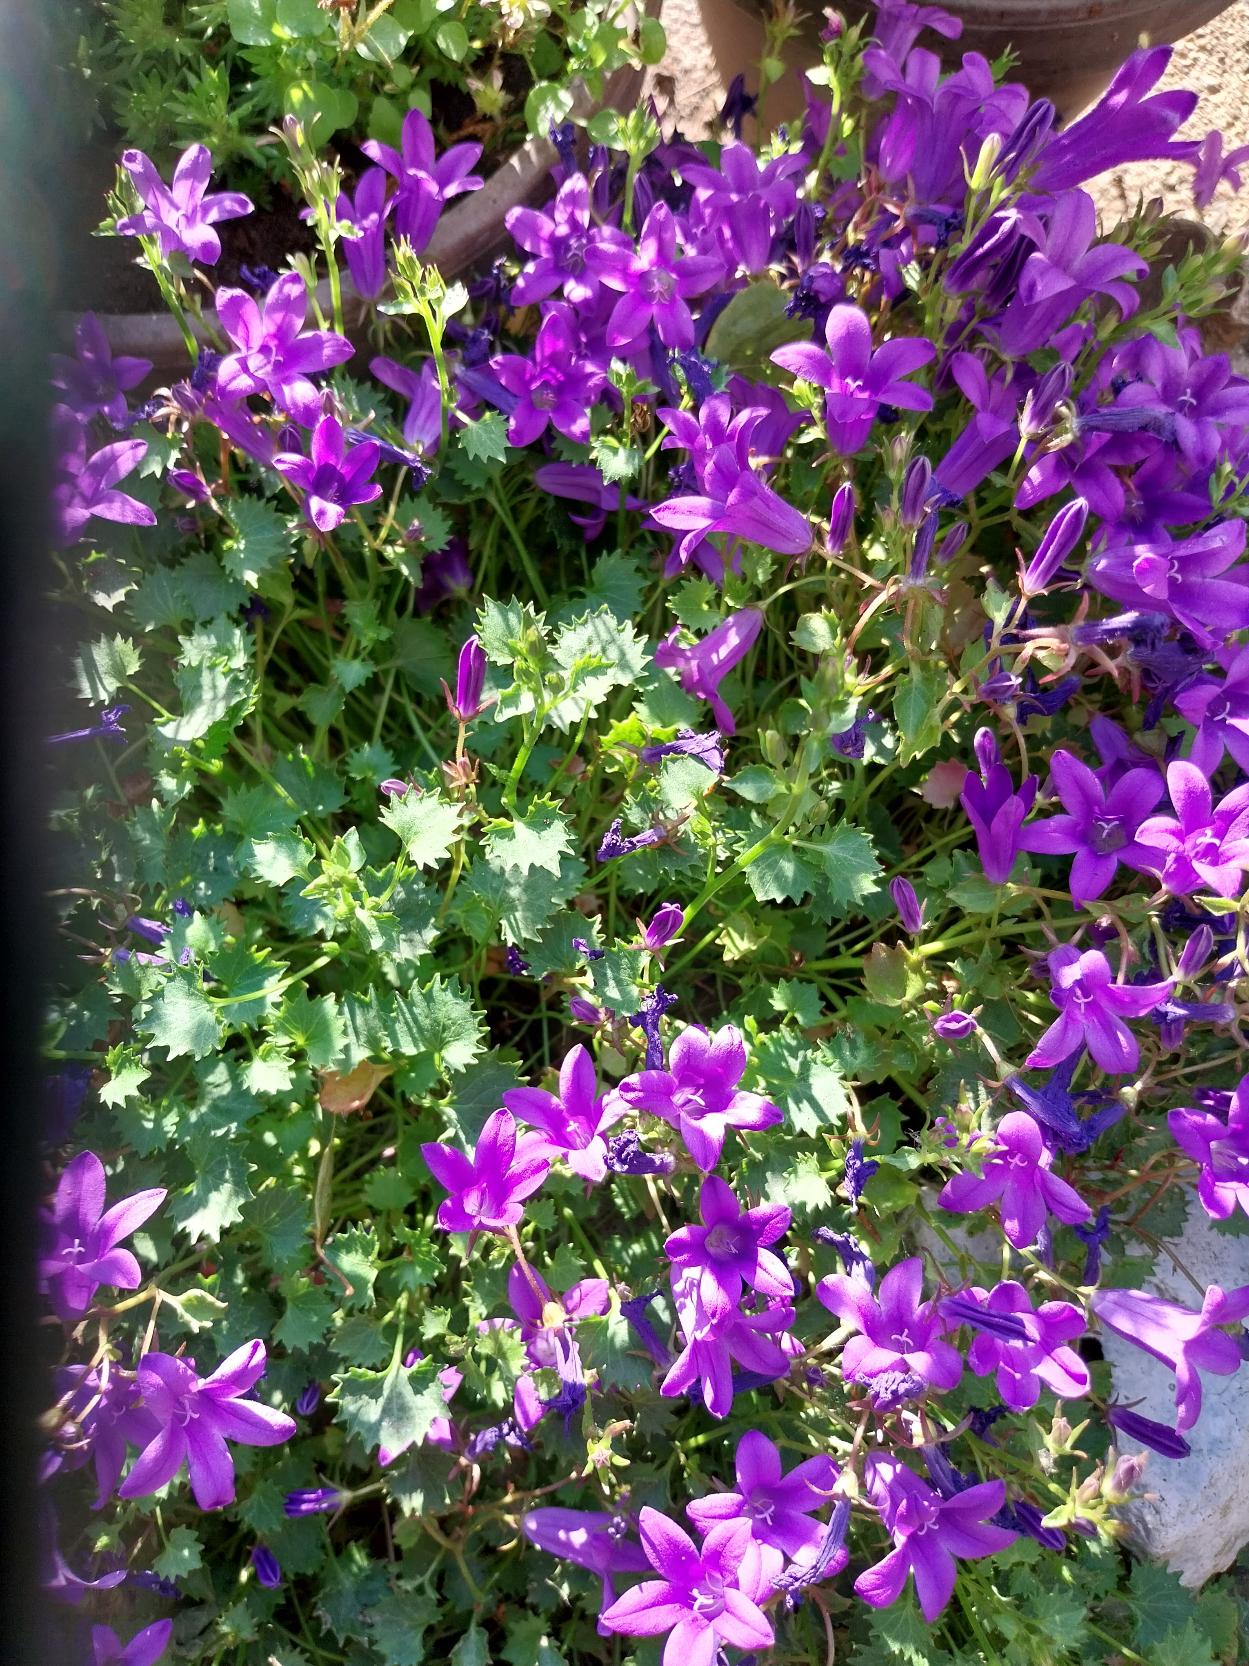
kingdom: Plantae
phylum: Tracheophyta
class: Magnoliopsida
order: Asterales
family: Campanulaceae
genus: Campanula
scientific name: Campanula portenschlagiana
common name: Krybe-klokke
